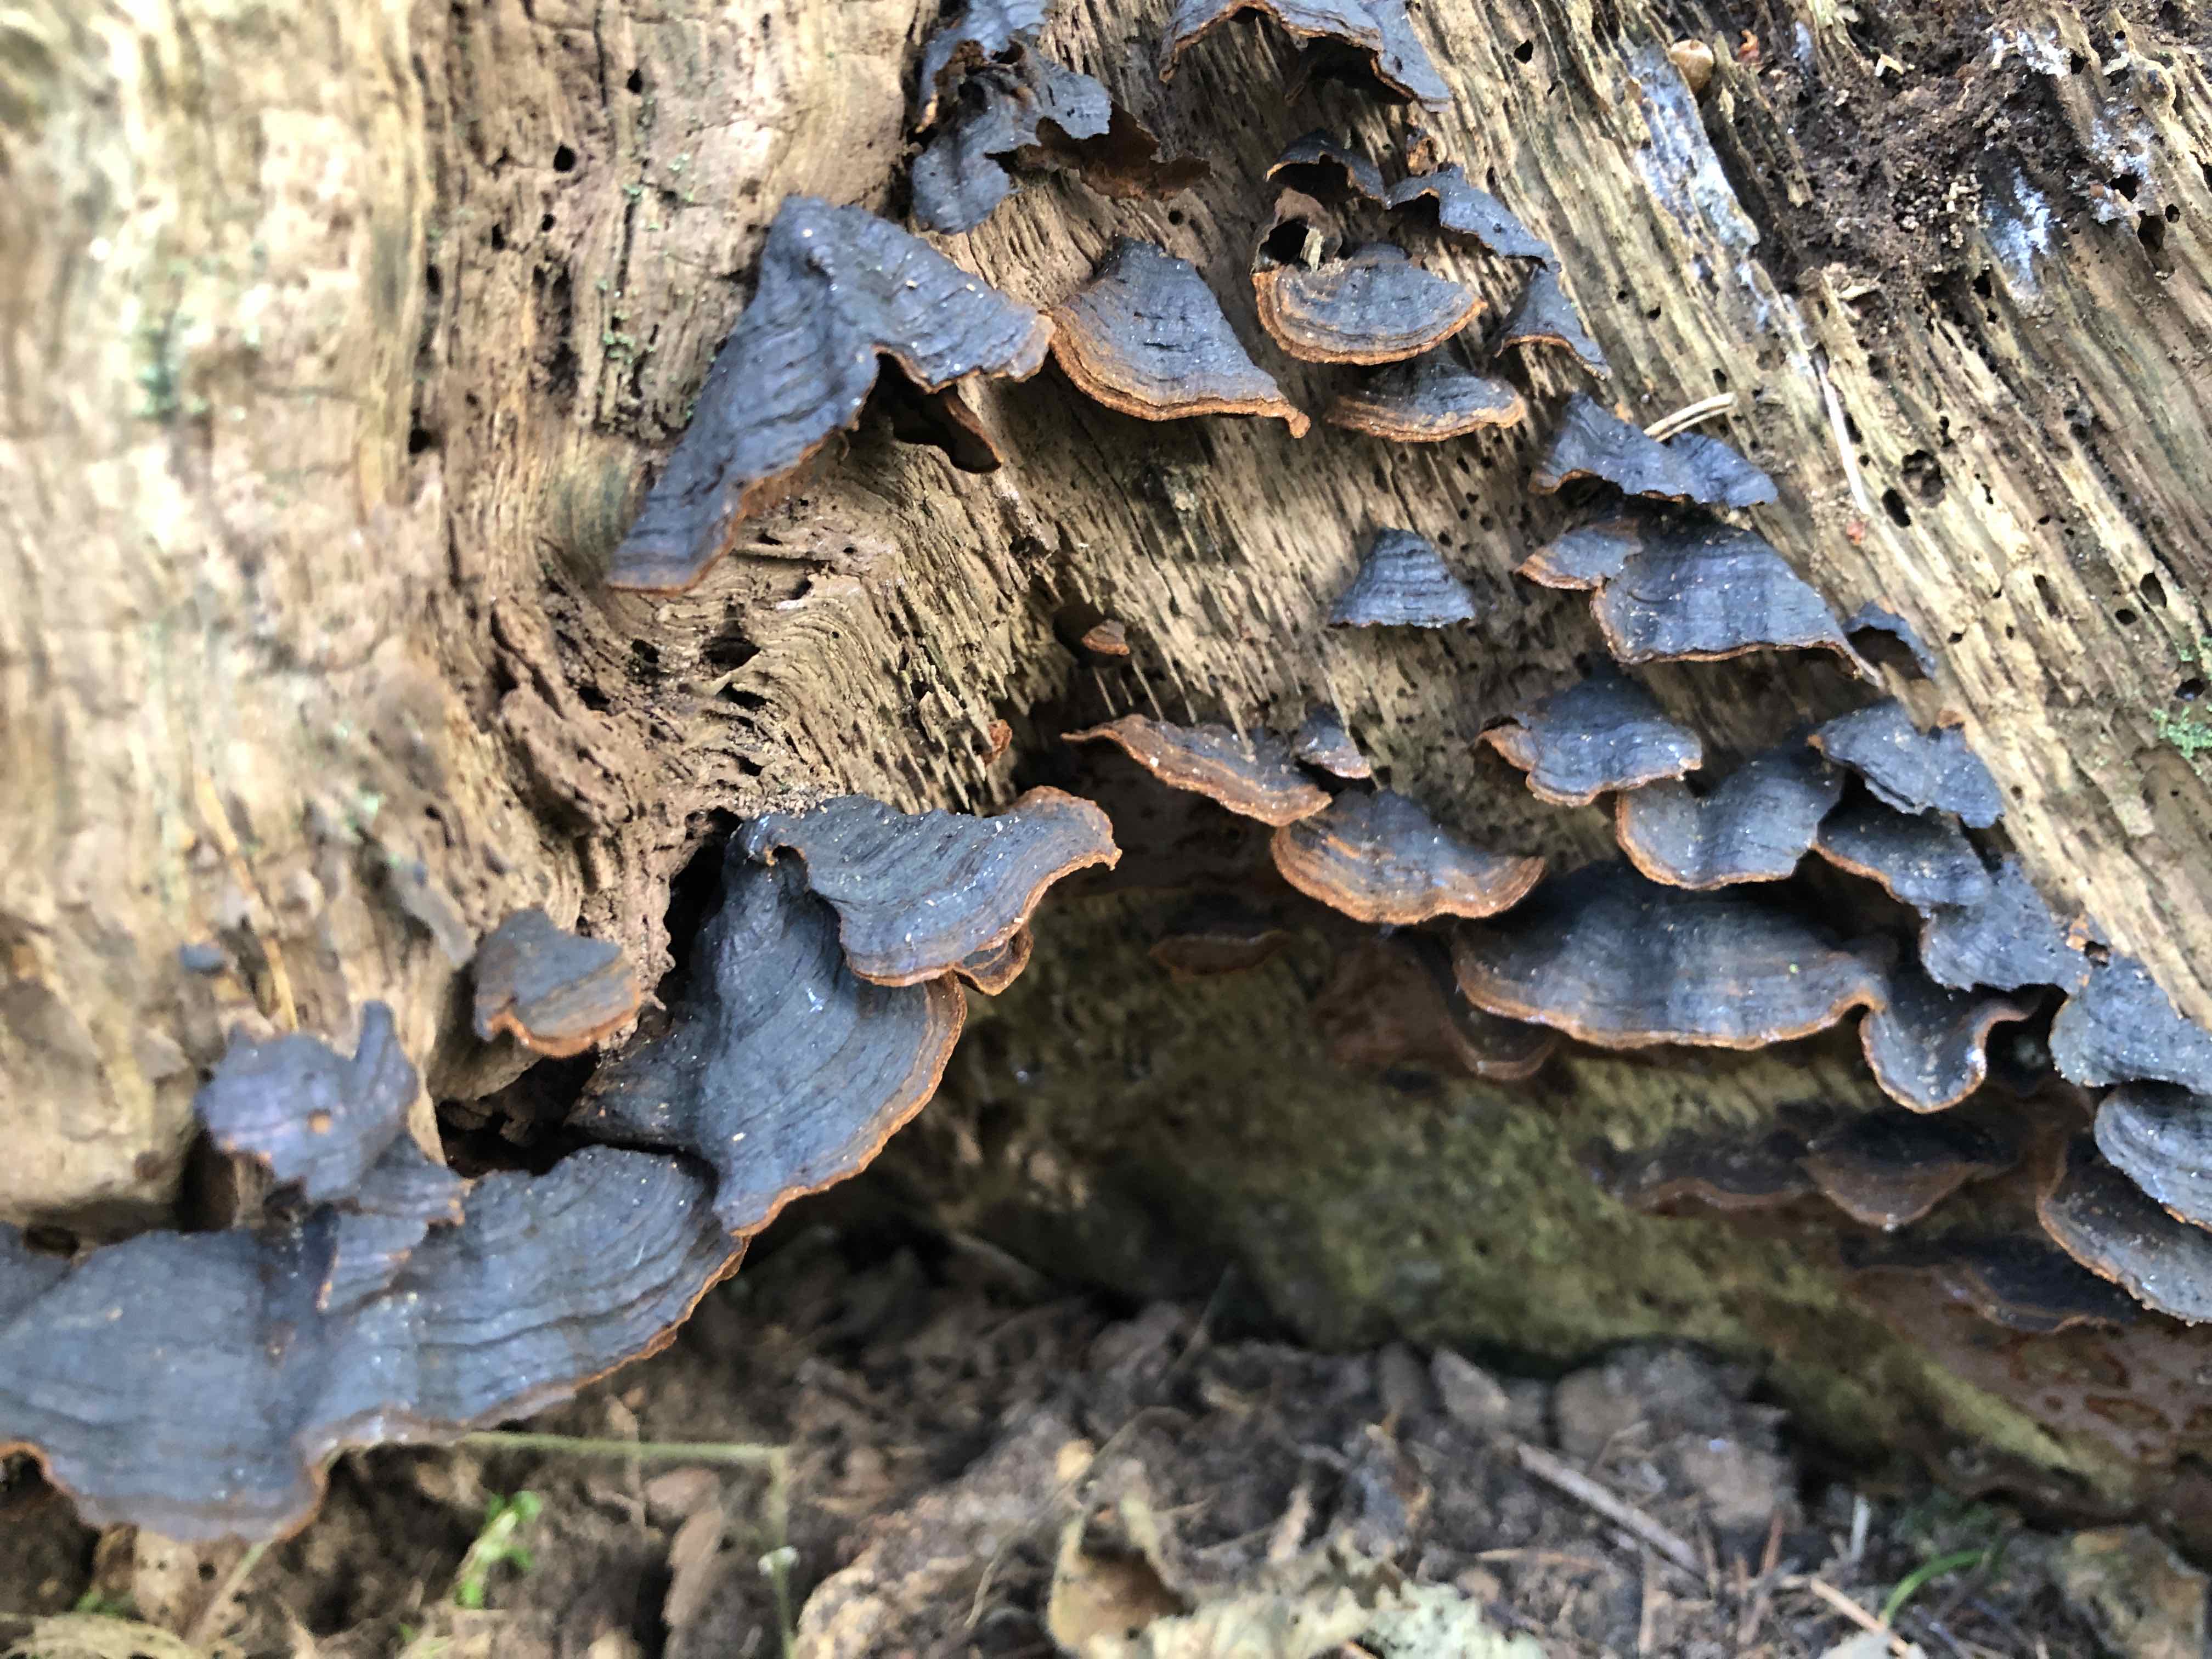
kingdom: Fungi
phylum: Basidiomycota
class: Agaricomycetes
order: Hymenochaetales
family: Hymenochaetaceae
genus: Hymenochaete
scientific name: Hymenochaete rubiginosa
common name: stiv ruslædersvamp
